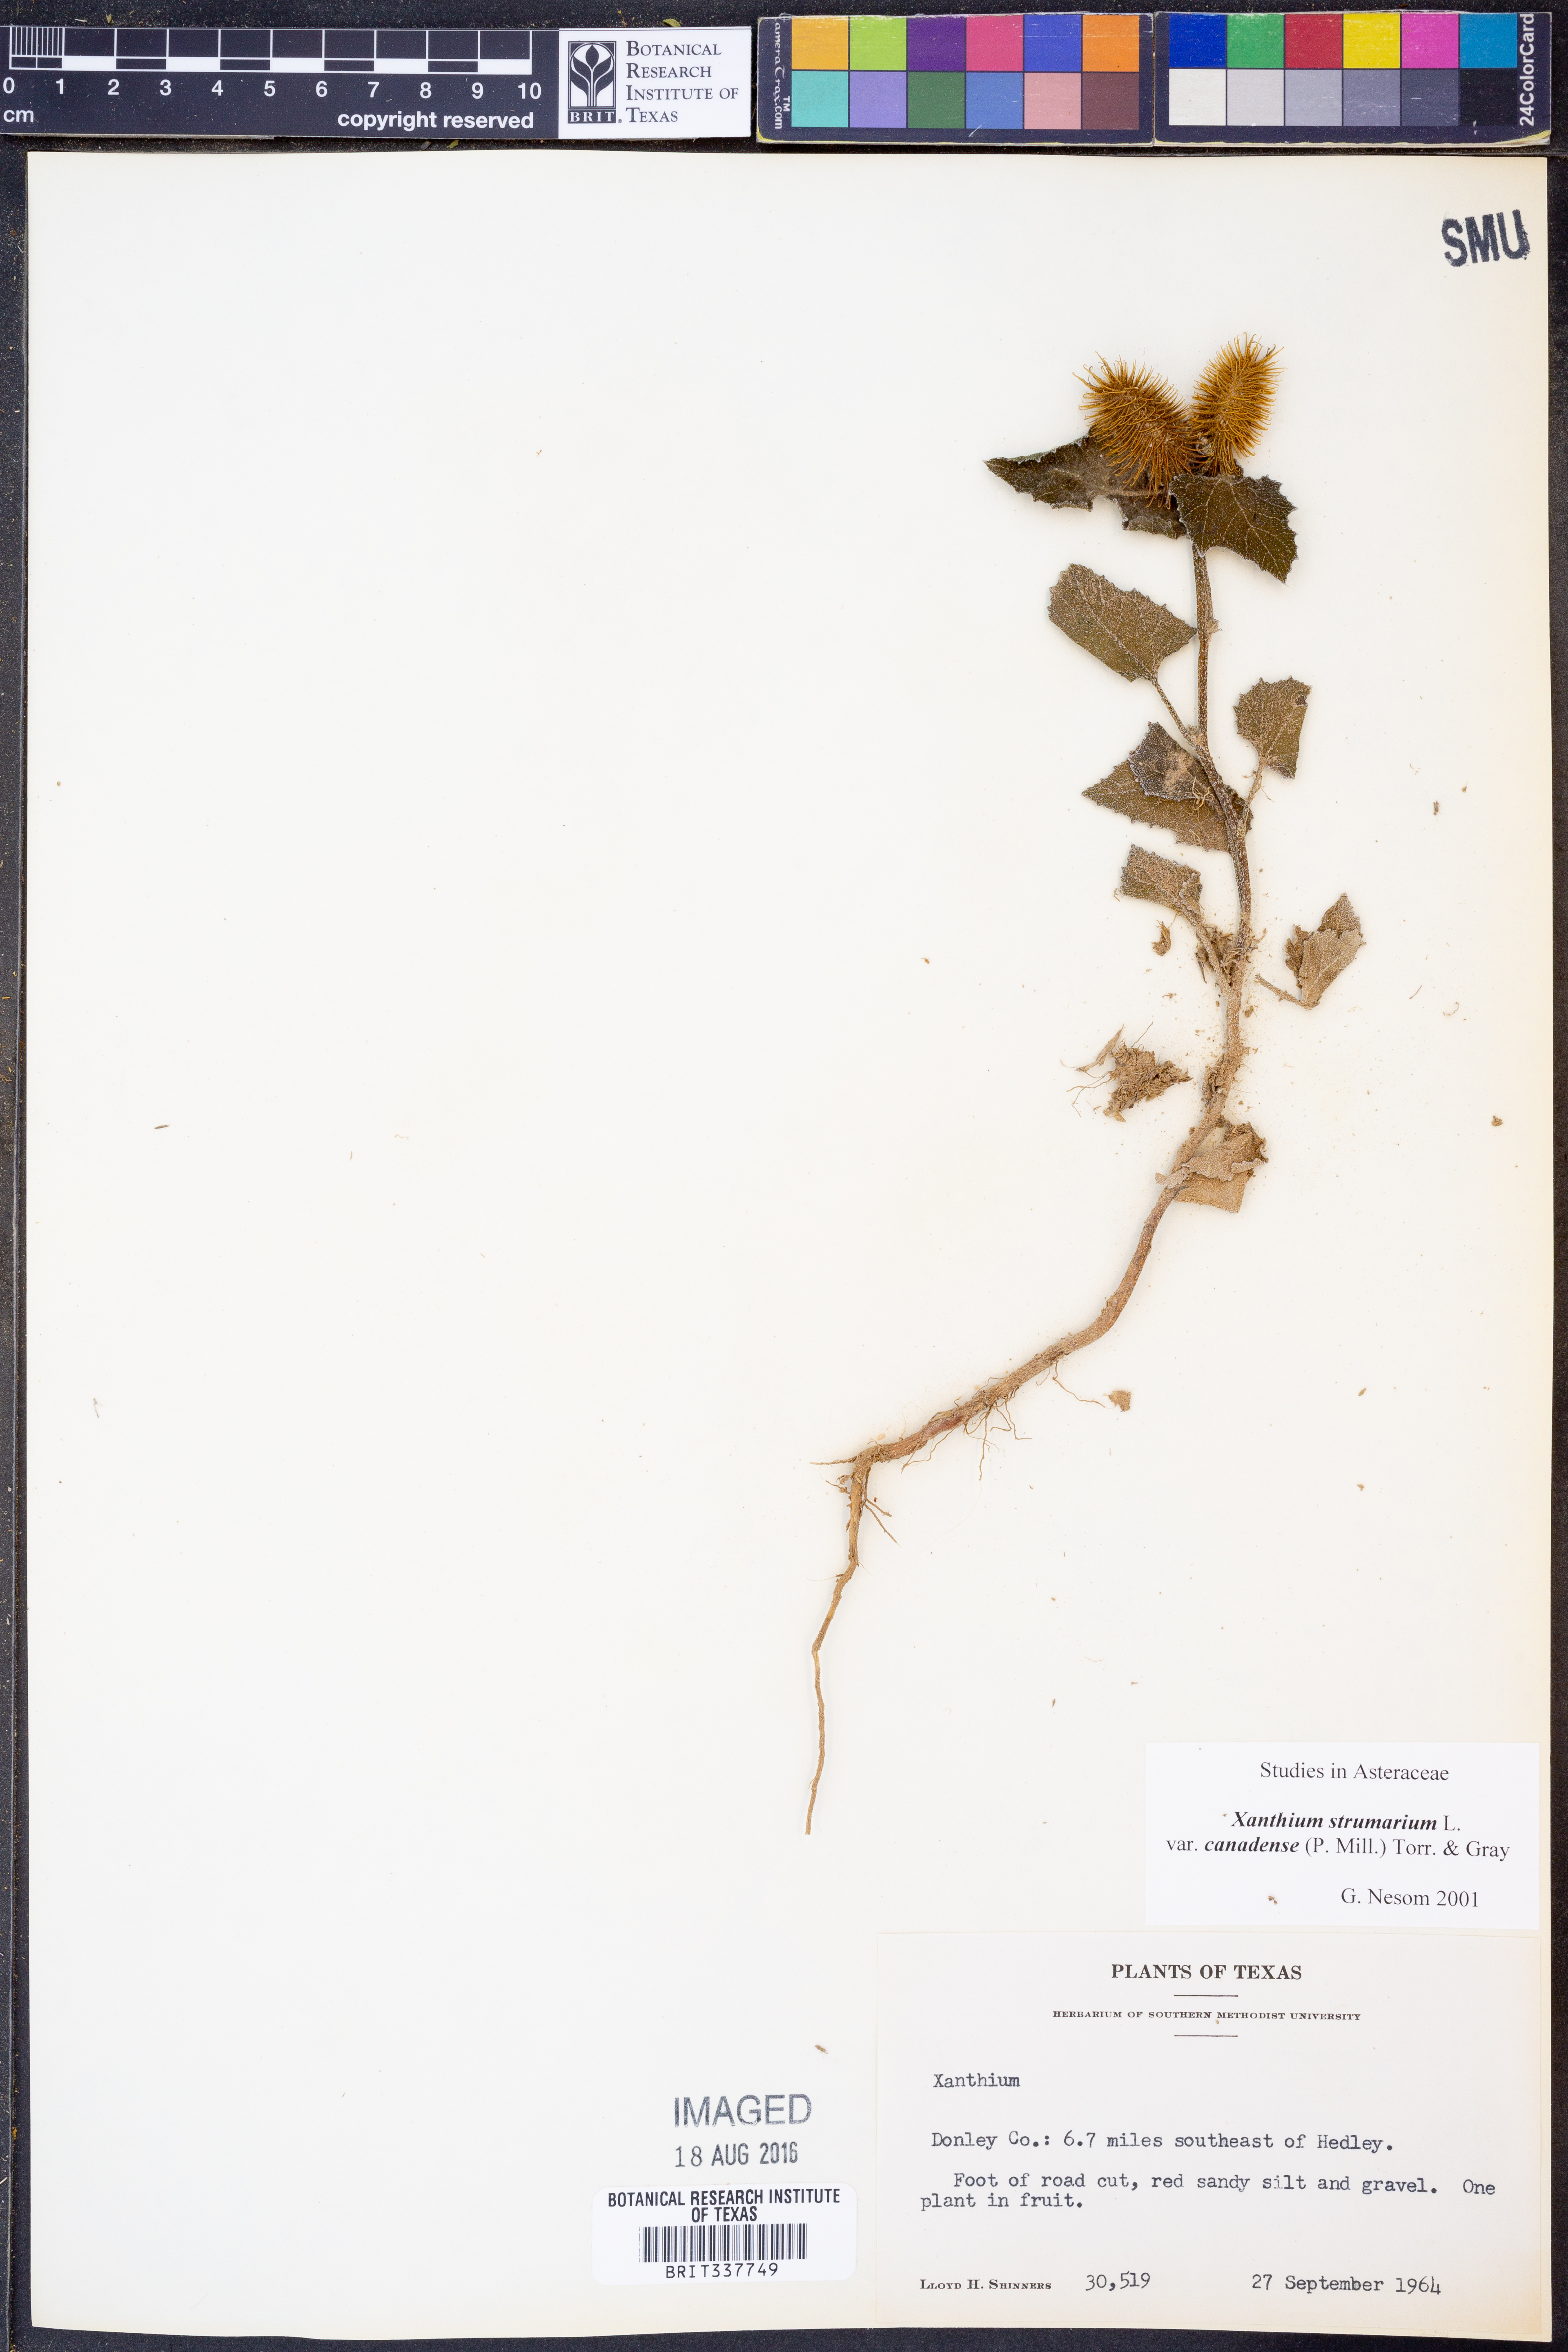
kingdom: Plantae
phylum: Tracheophyta
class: Magnoliopsida
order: Asterales
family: Asteraceae
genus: Xanthium
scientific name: Xanthium orientale
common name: Californian burr
